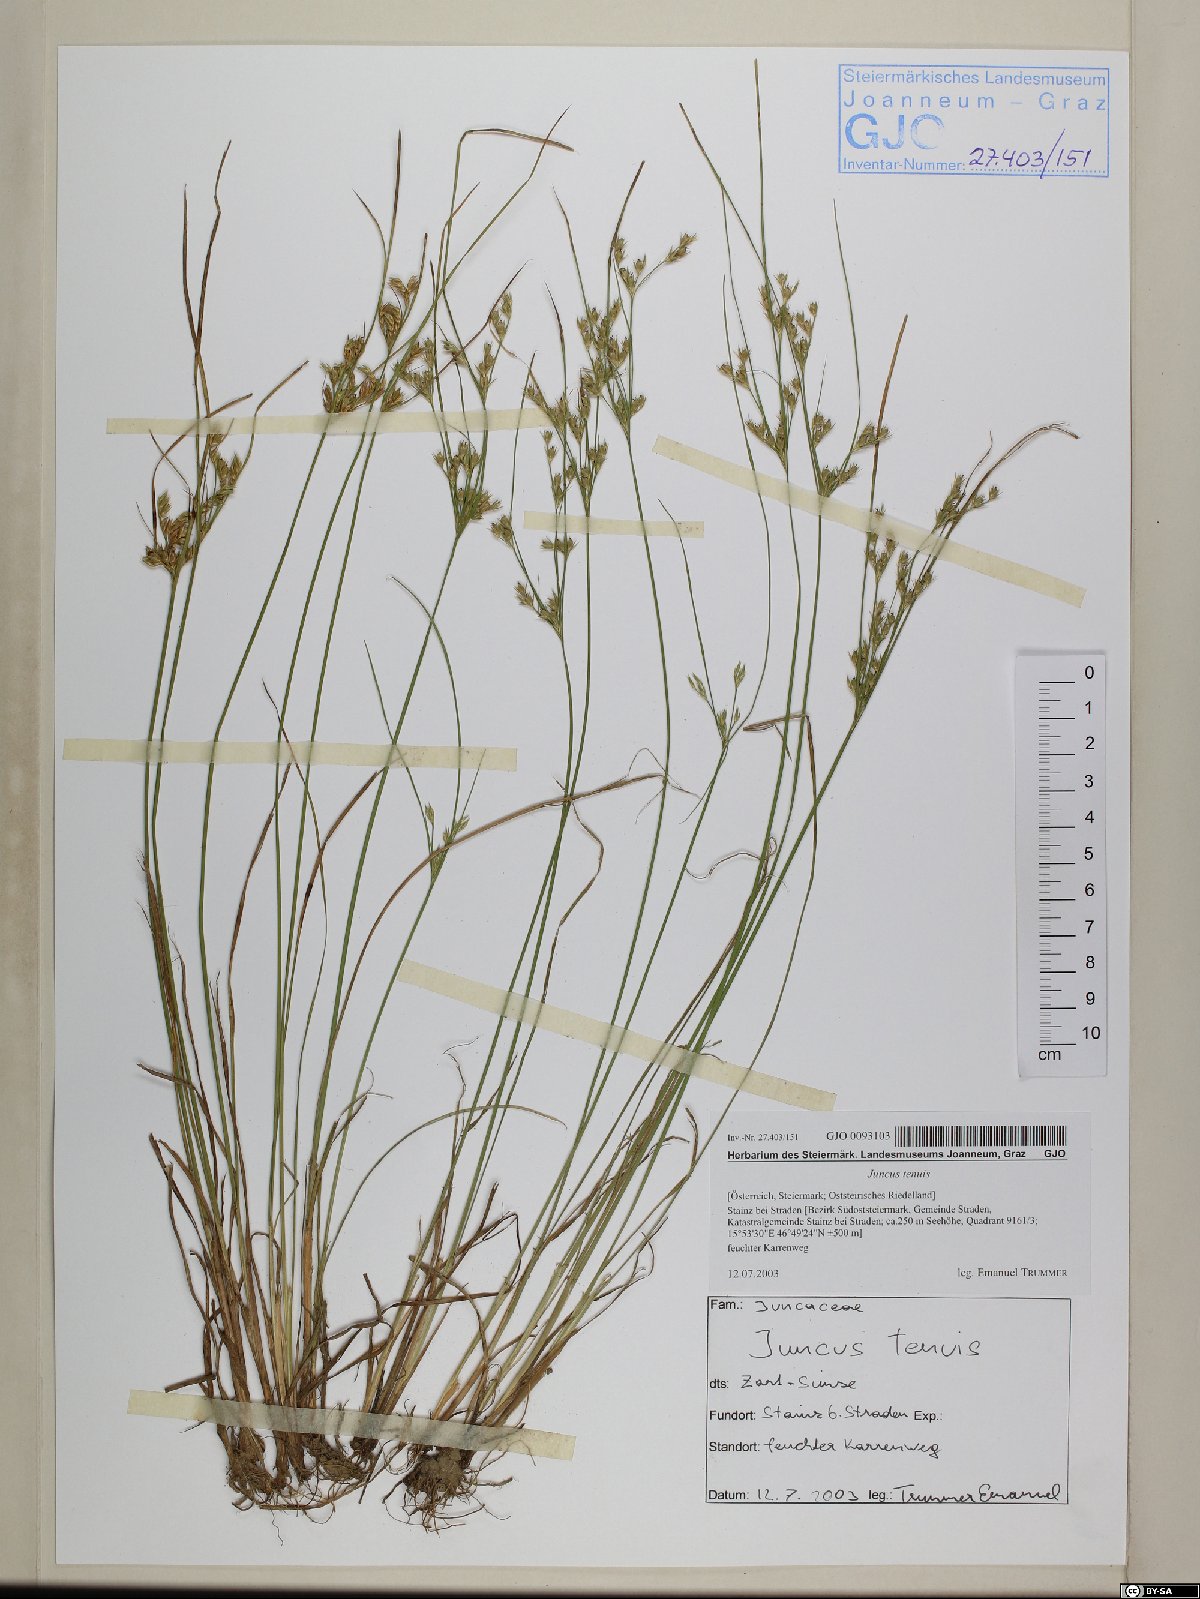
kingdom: Plantae
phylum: Tracheophyta
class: Liliopsida
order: Poales
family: Juncaceae
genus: Juncus
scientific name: Juncus tenuis
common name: Slender rush
